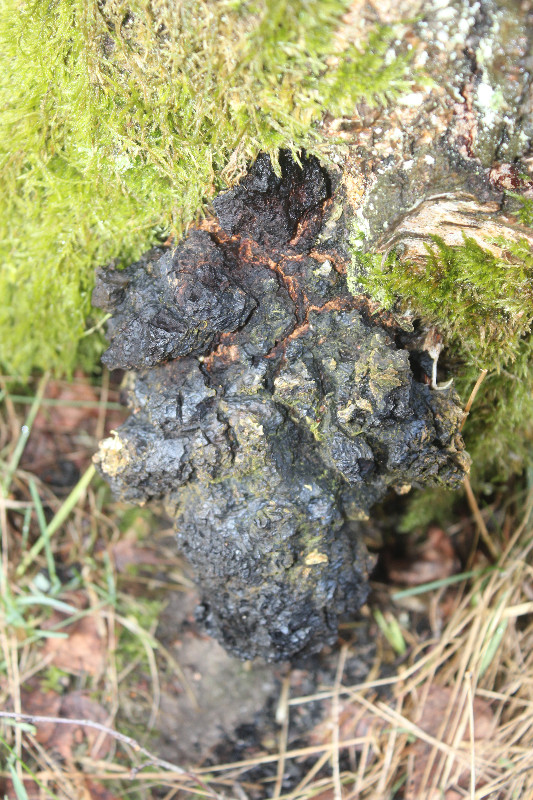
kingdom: Fungi
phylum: Basidiomycota
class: Agaricomycetes
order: Hymenochaetales
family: Hymenochaetaceae
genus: Inonotus
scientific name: Inonotus obliquus
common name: birke-spejlporesvamp
